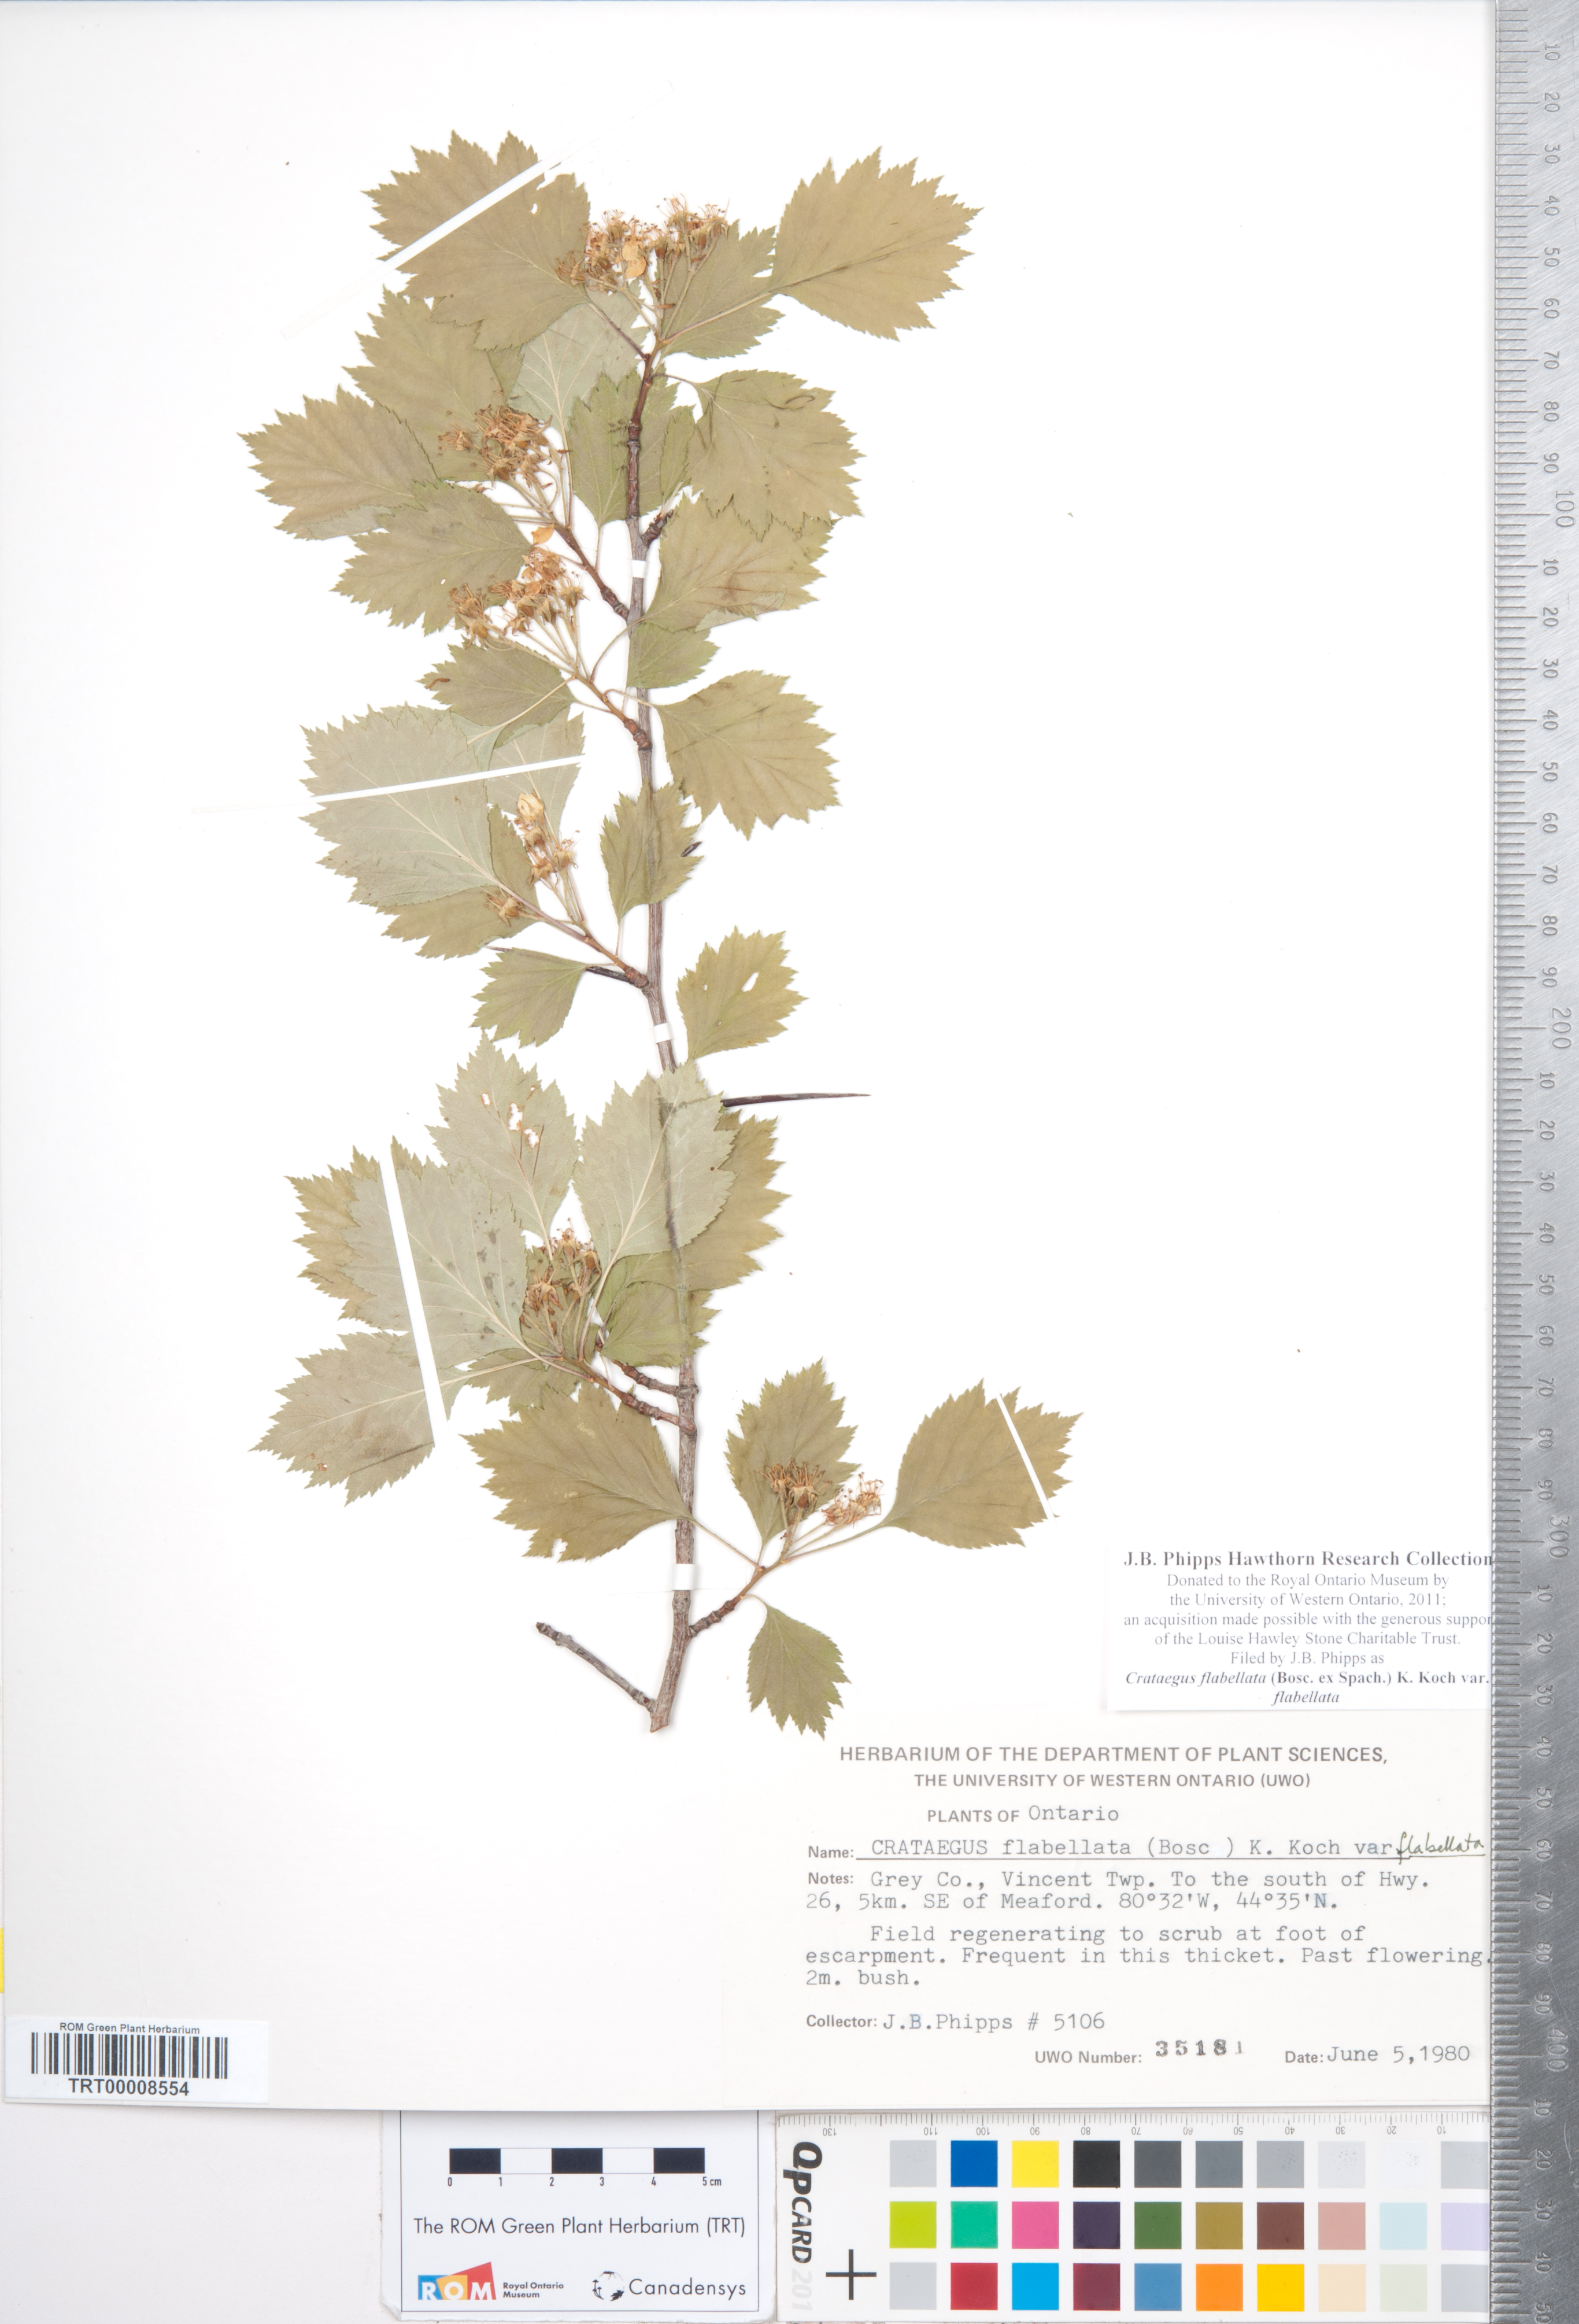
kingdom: Plantae
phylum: Tracheophyta
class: Magnoliopsida
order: Rosales
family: Rosaceae
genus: Crataegus
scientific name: Crataegus flabellata
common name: Bosc's hawthorn
